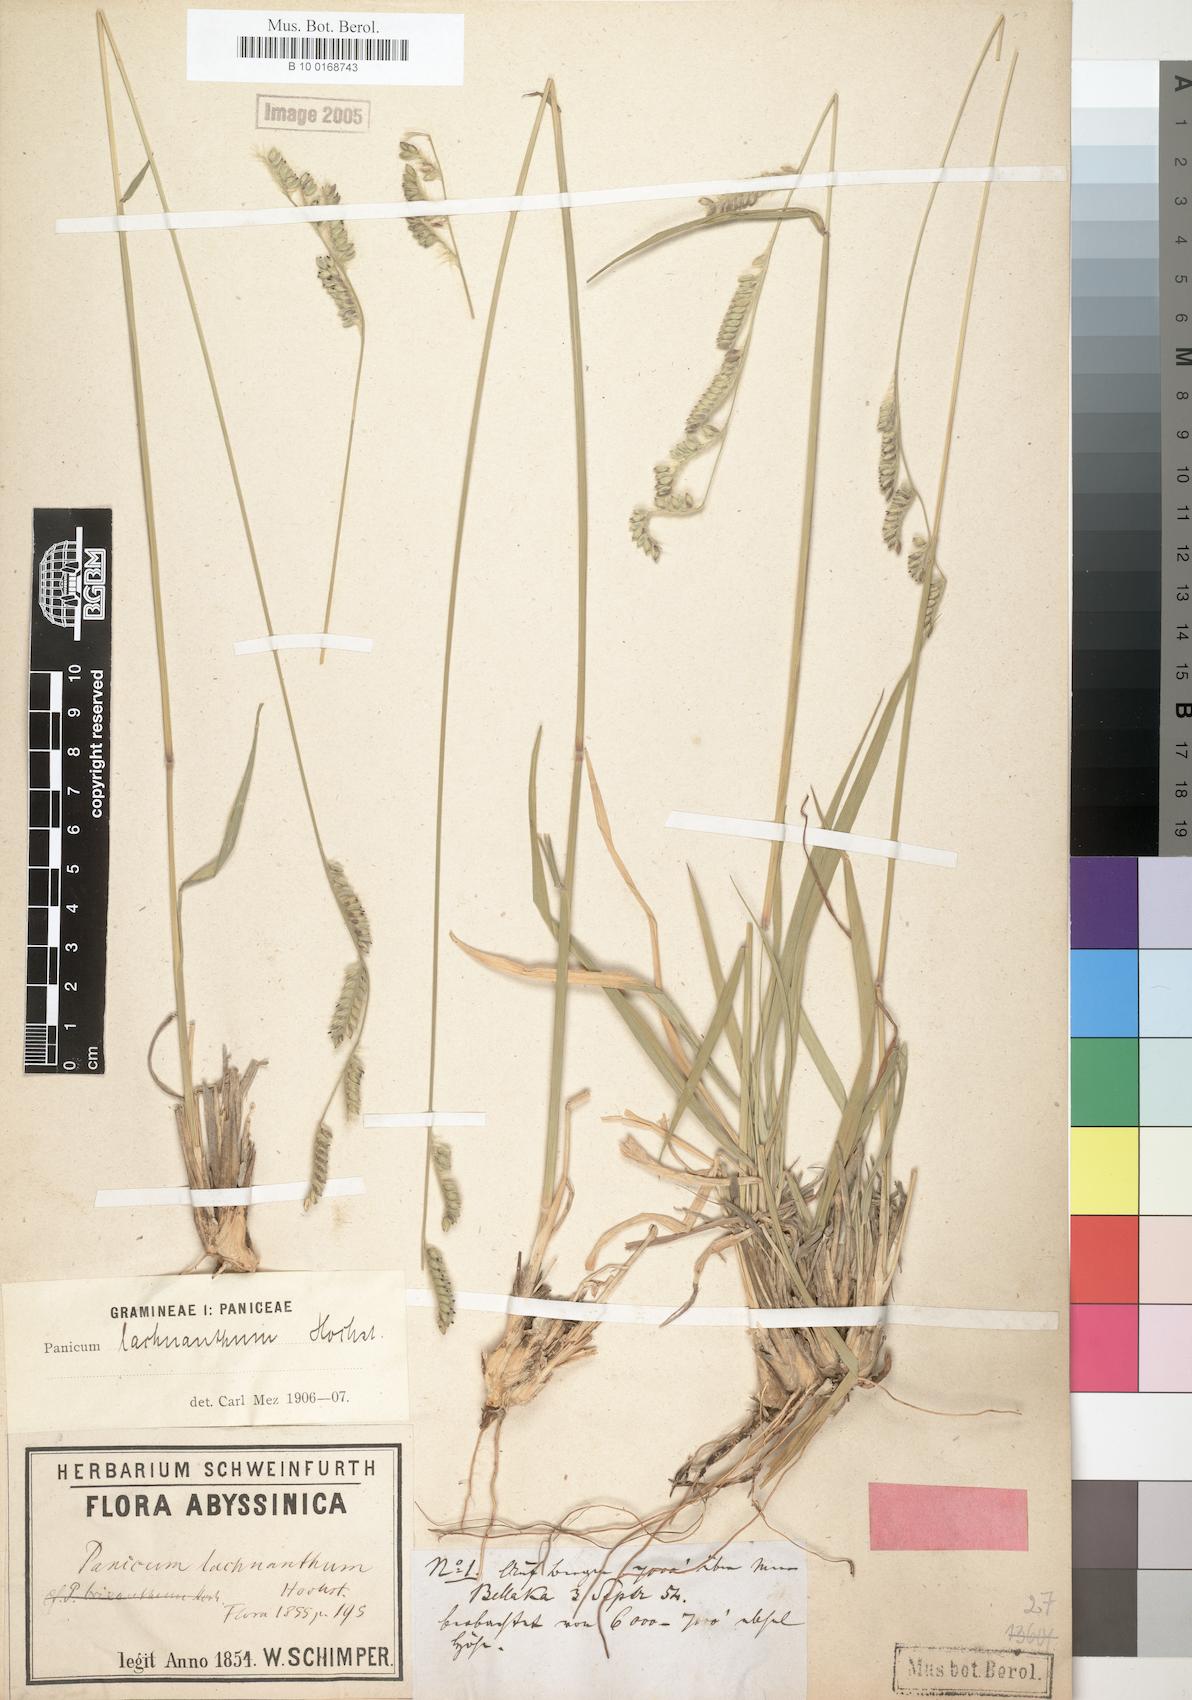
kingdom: Plantae
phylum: Tracheophyta
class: Liliopsida
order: Poales
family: Poaceae
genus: Urochloa
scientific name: Urochloa lachnantha
